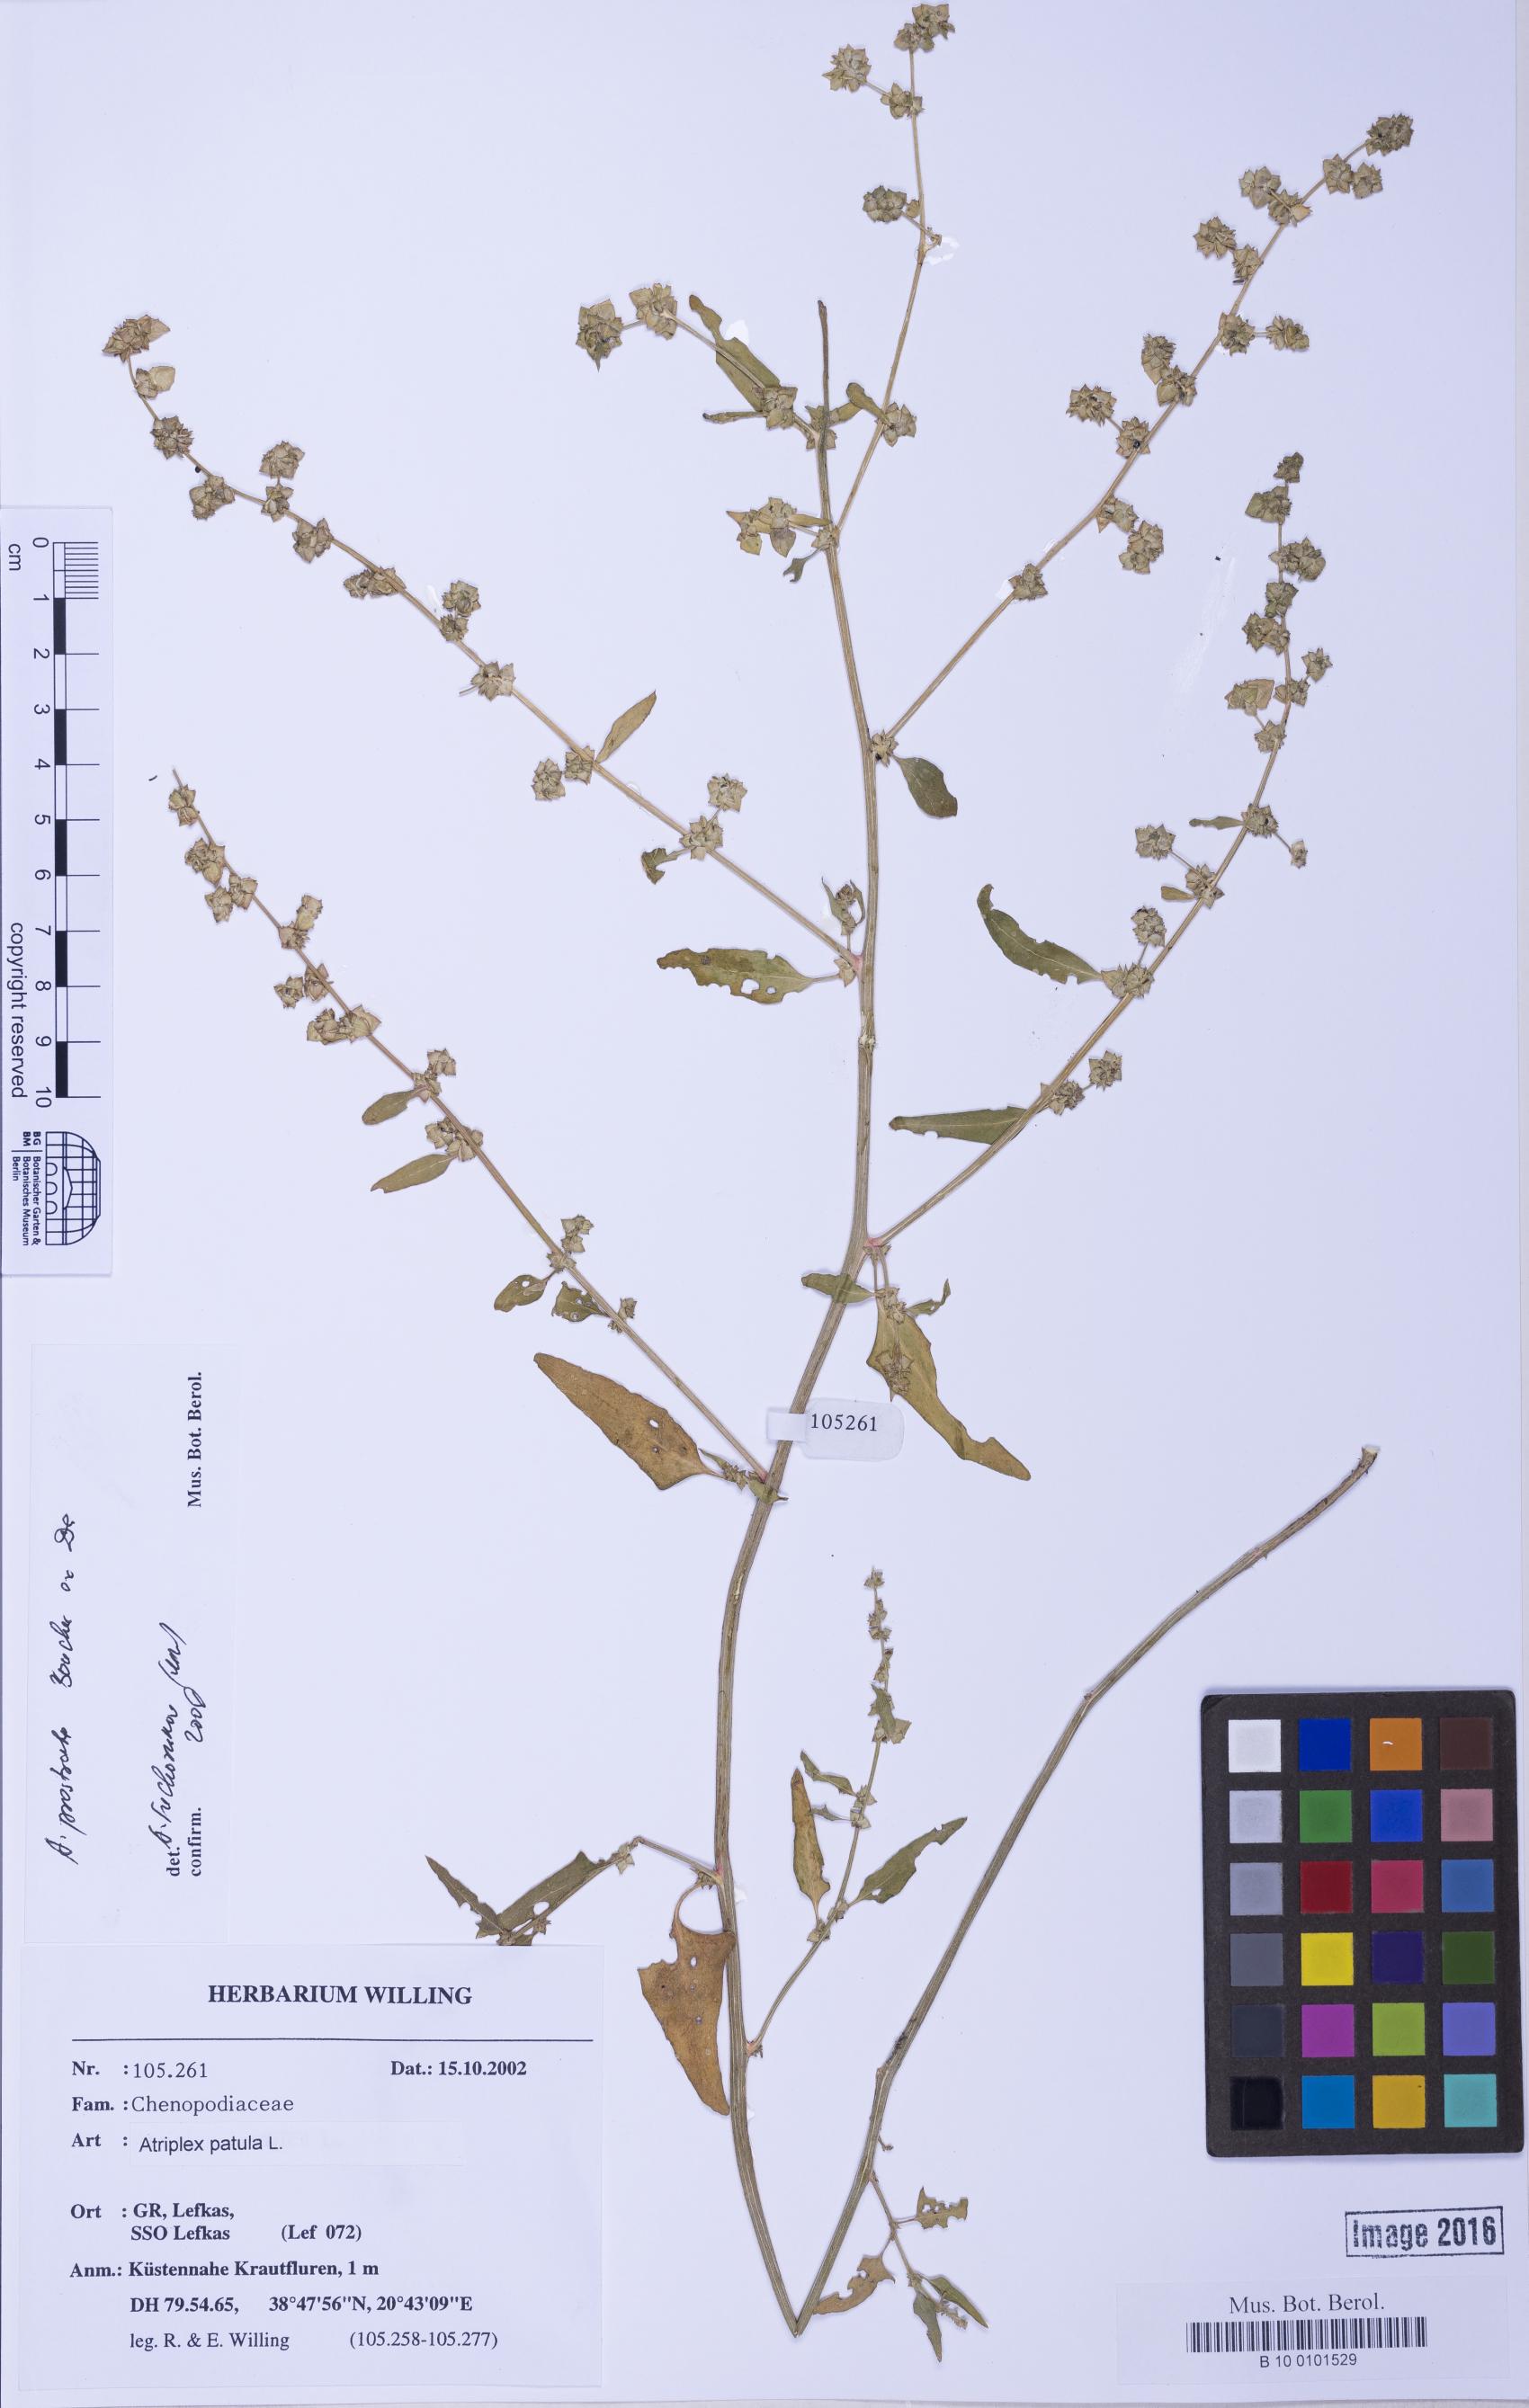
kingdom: Plantae
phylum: Tracheophyta
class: Magnoliopsida
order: Caryophyllales
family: Amaranthaceae
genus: Atriplex
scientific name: Atriplex prostrata
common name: Spear-leaved orache
